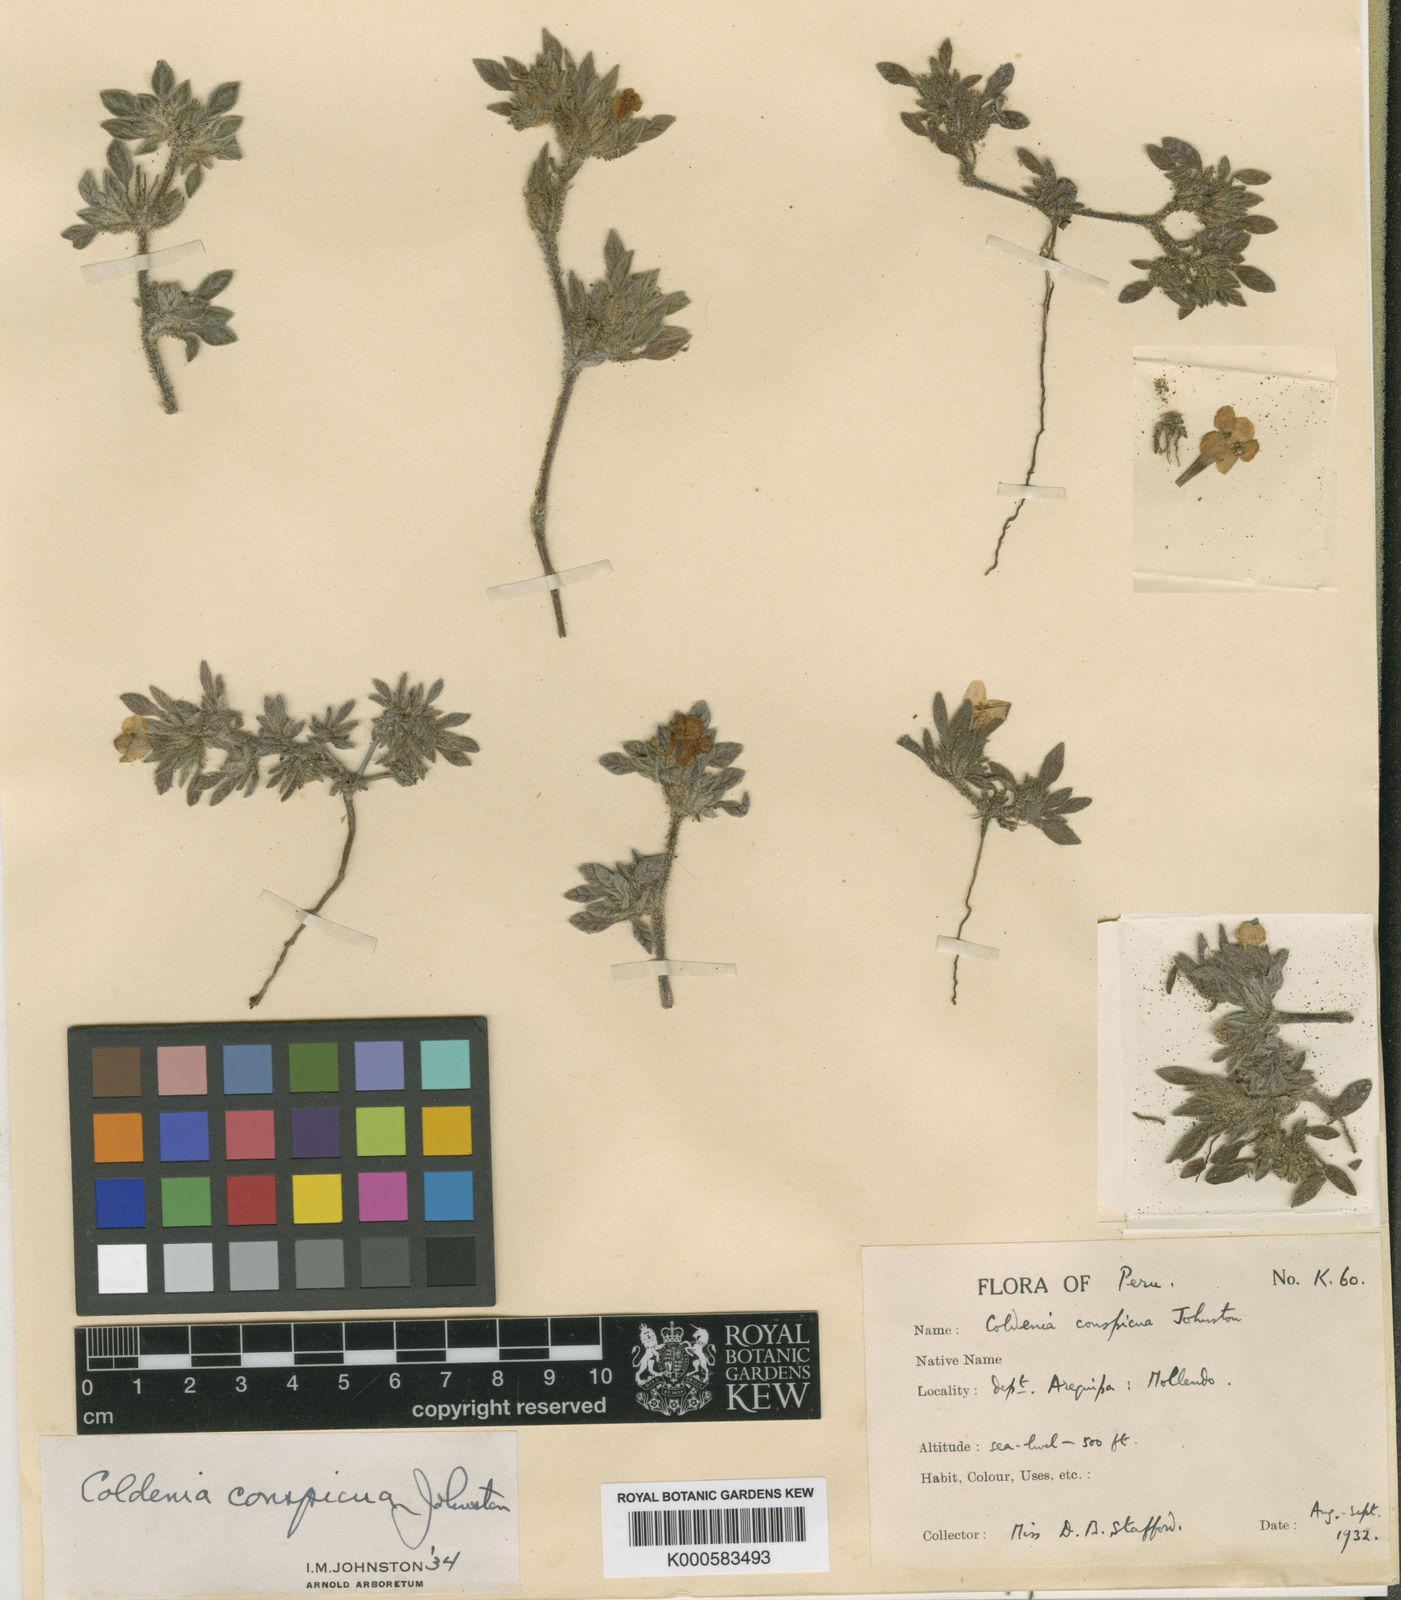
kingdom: Plantae
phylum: Tracheophyta
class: Magnoliopsida
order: Boraginales
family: Ehretiaceae
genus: Tiquilia
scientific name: Tiquilia conspicua
